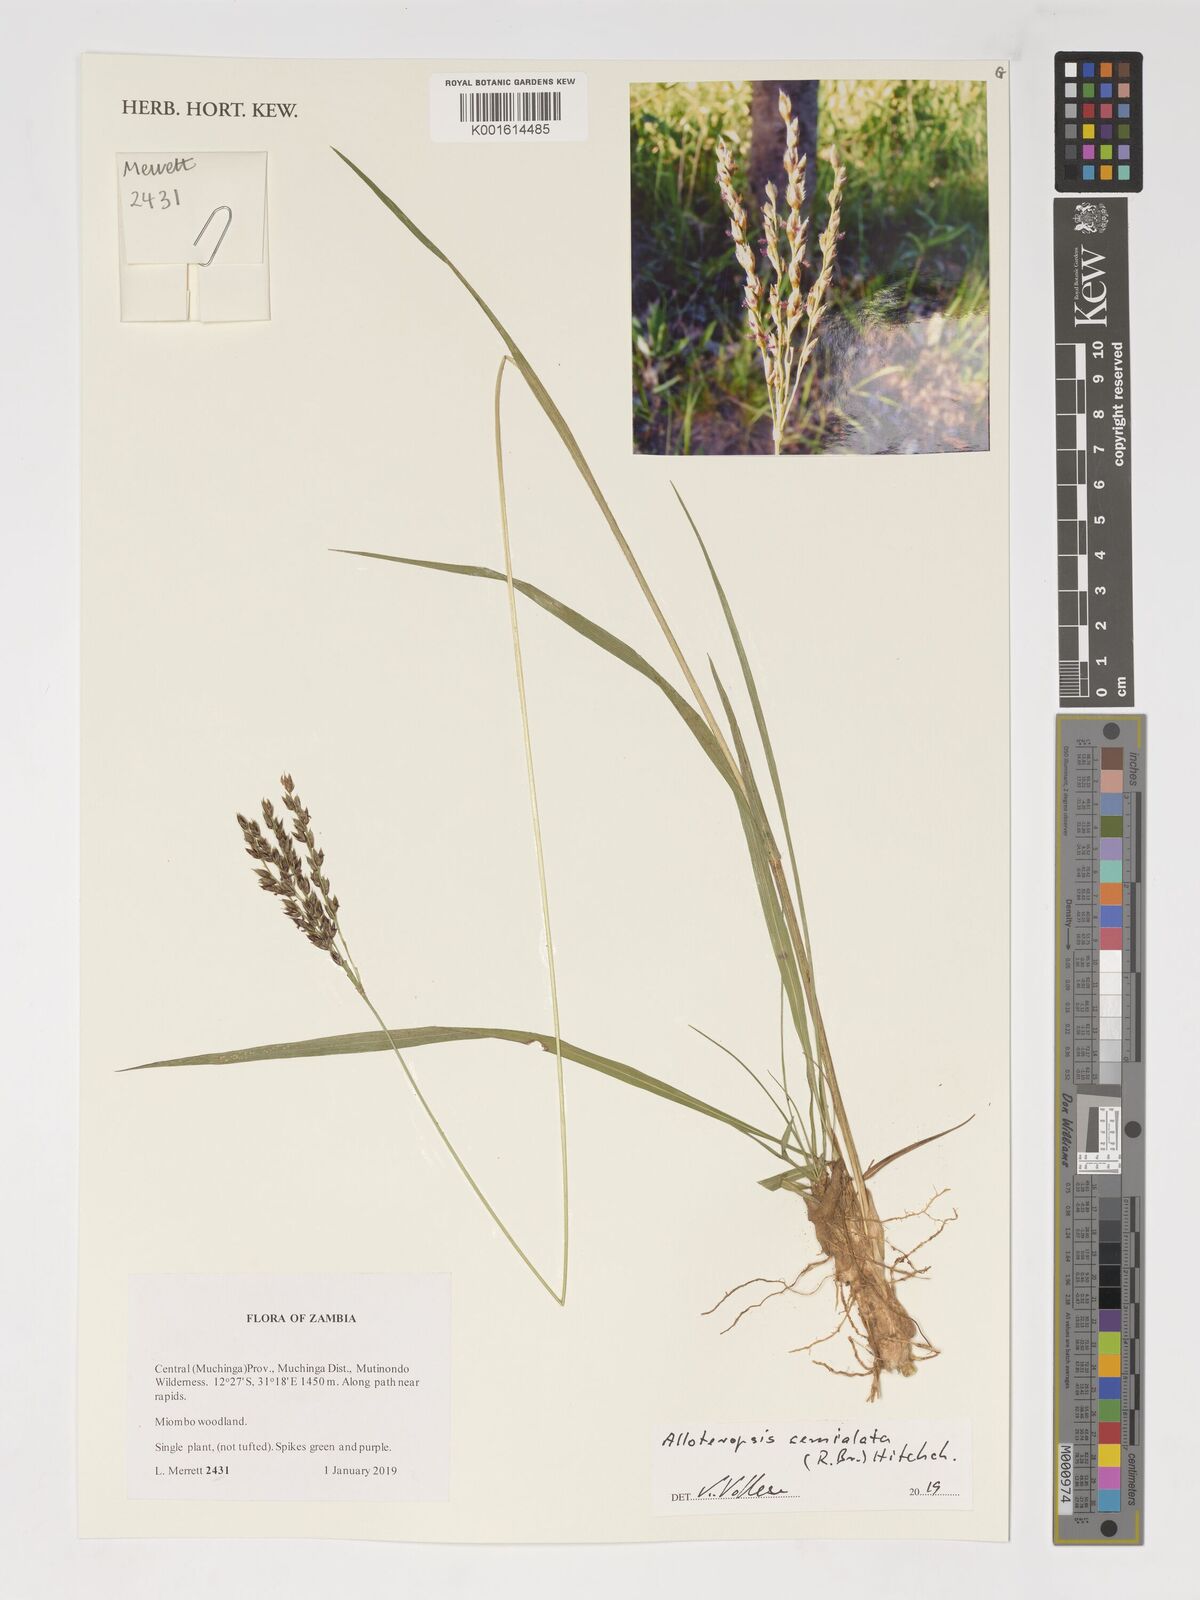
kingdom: Plantae
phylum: Tracheophyta
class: Liliopsida
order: Poales
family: Poaceae
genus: Alloteropsis
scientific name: Alloteropsis semialata
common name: Cockatoo grass
